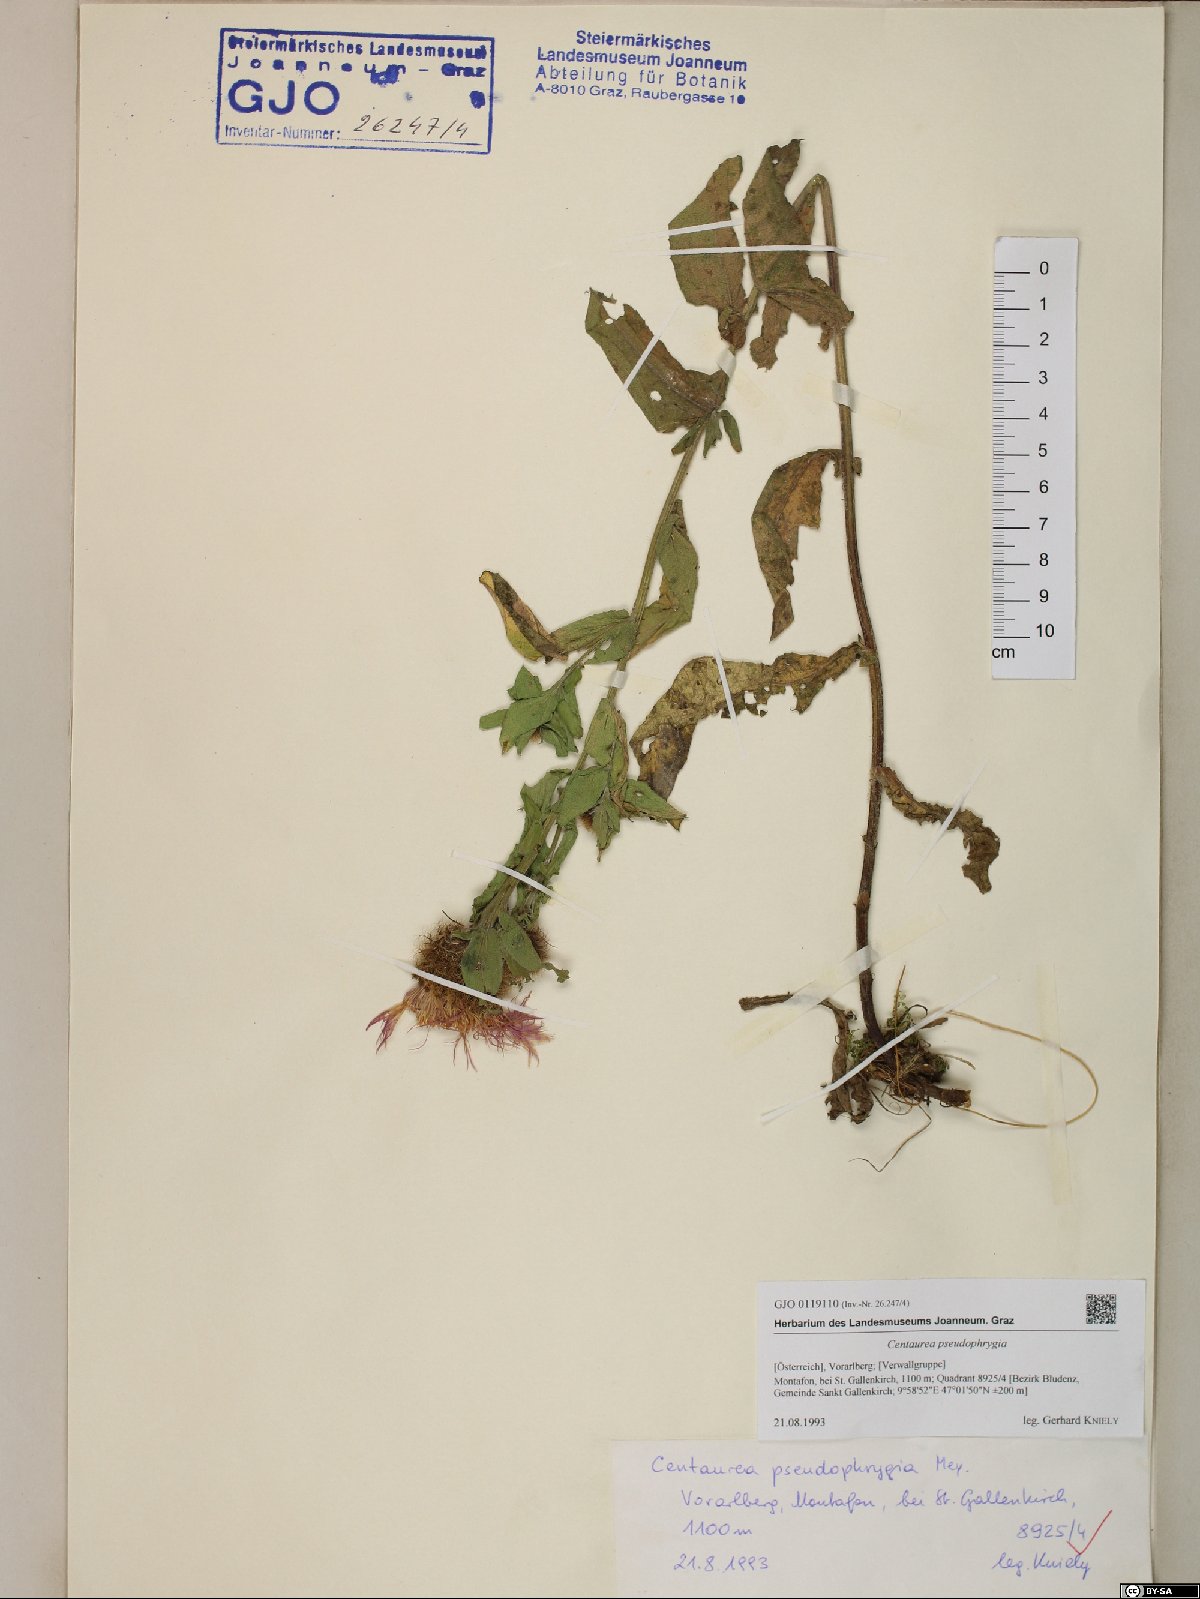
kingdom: Plantae
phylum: Tracheophyta
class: Magnoliopsida
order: Asterales
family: Asteraceae
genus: Centaurea
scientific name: Centaurea pseudophrygia
